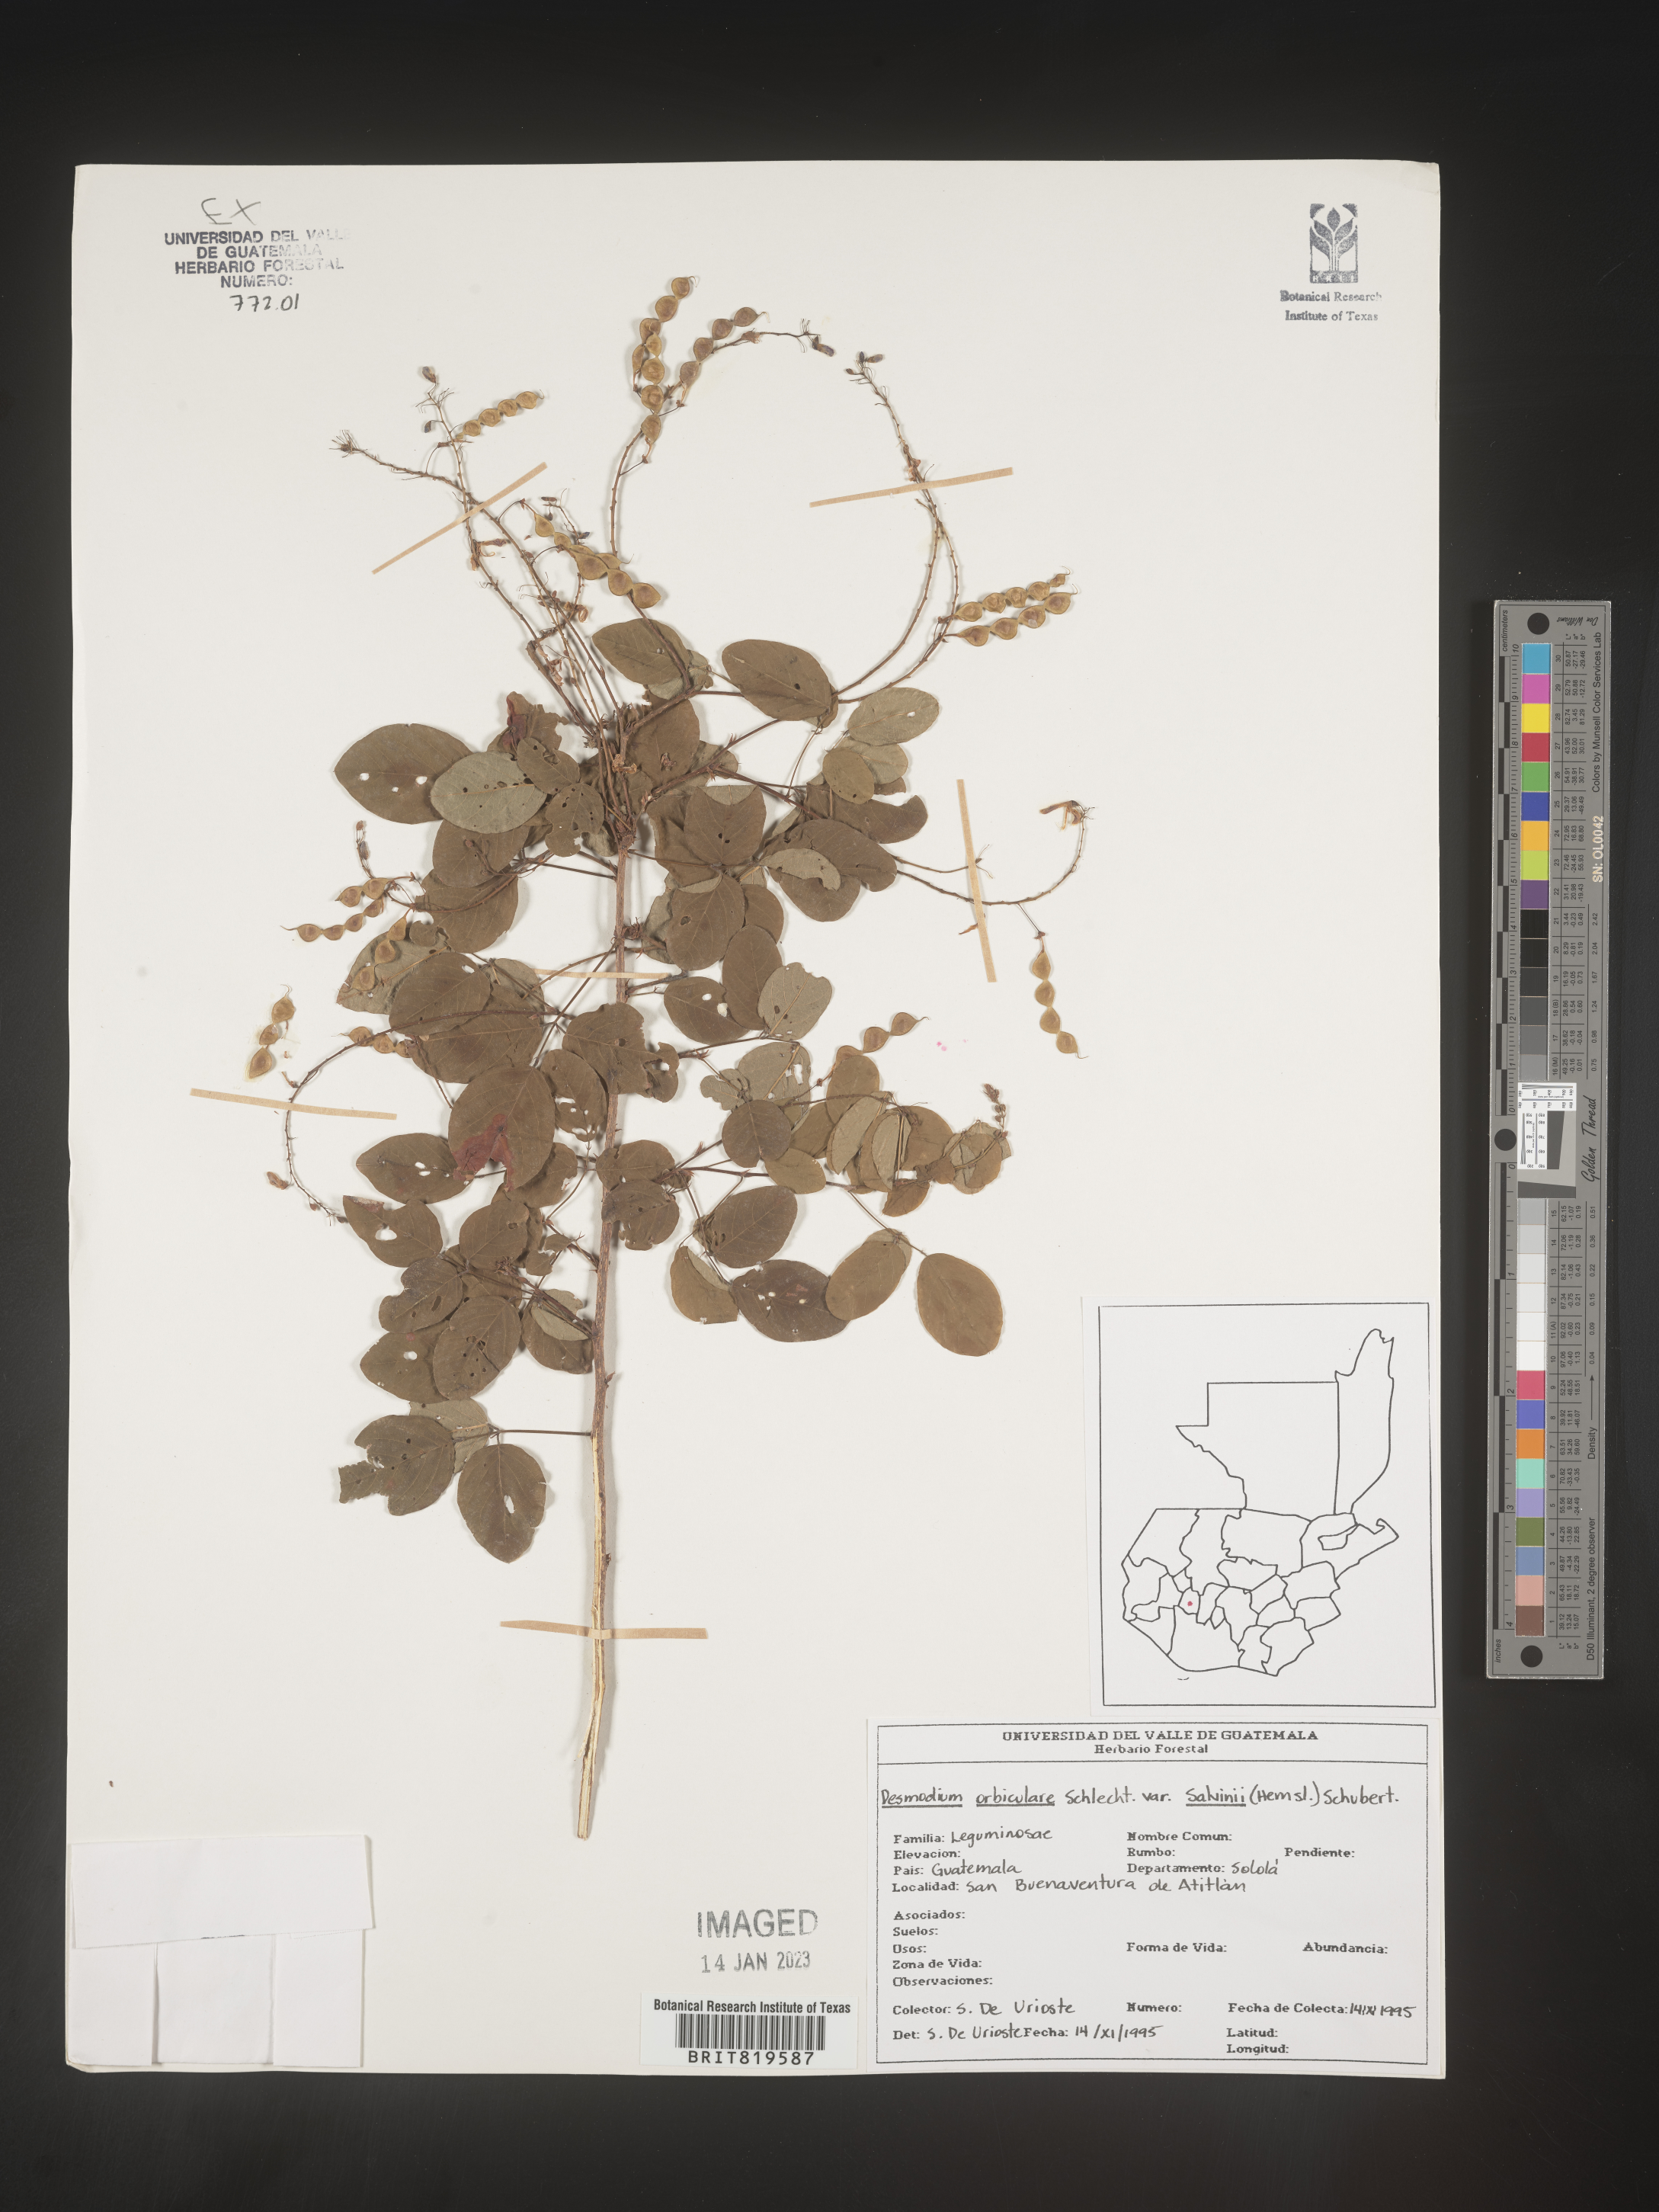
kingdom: Plantae
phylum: Tracheophyta
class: Magnoliopsida
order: Fabales
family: Fabaceae
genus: Desmodium
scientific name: Desmodium
